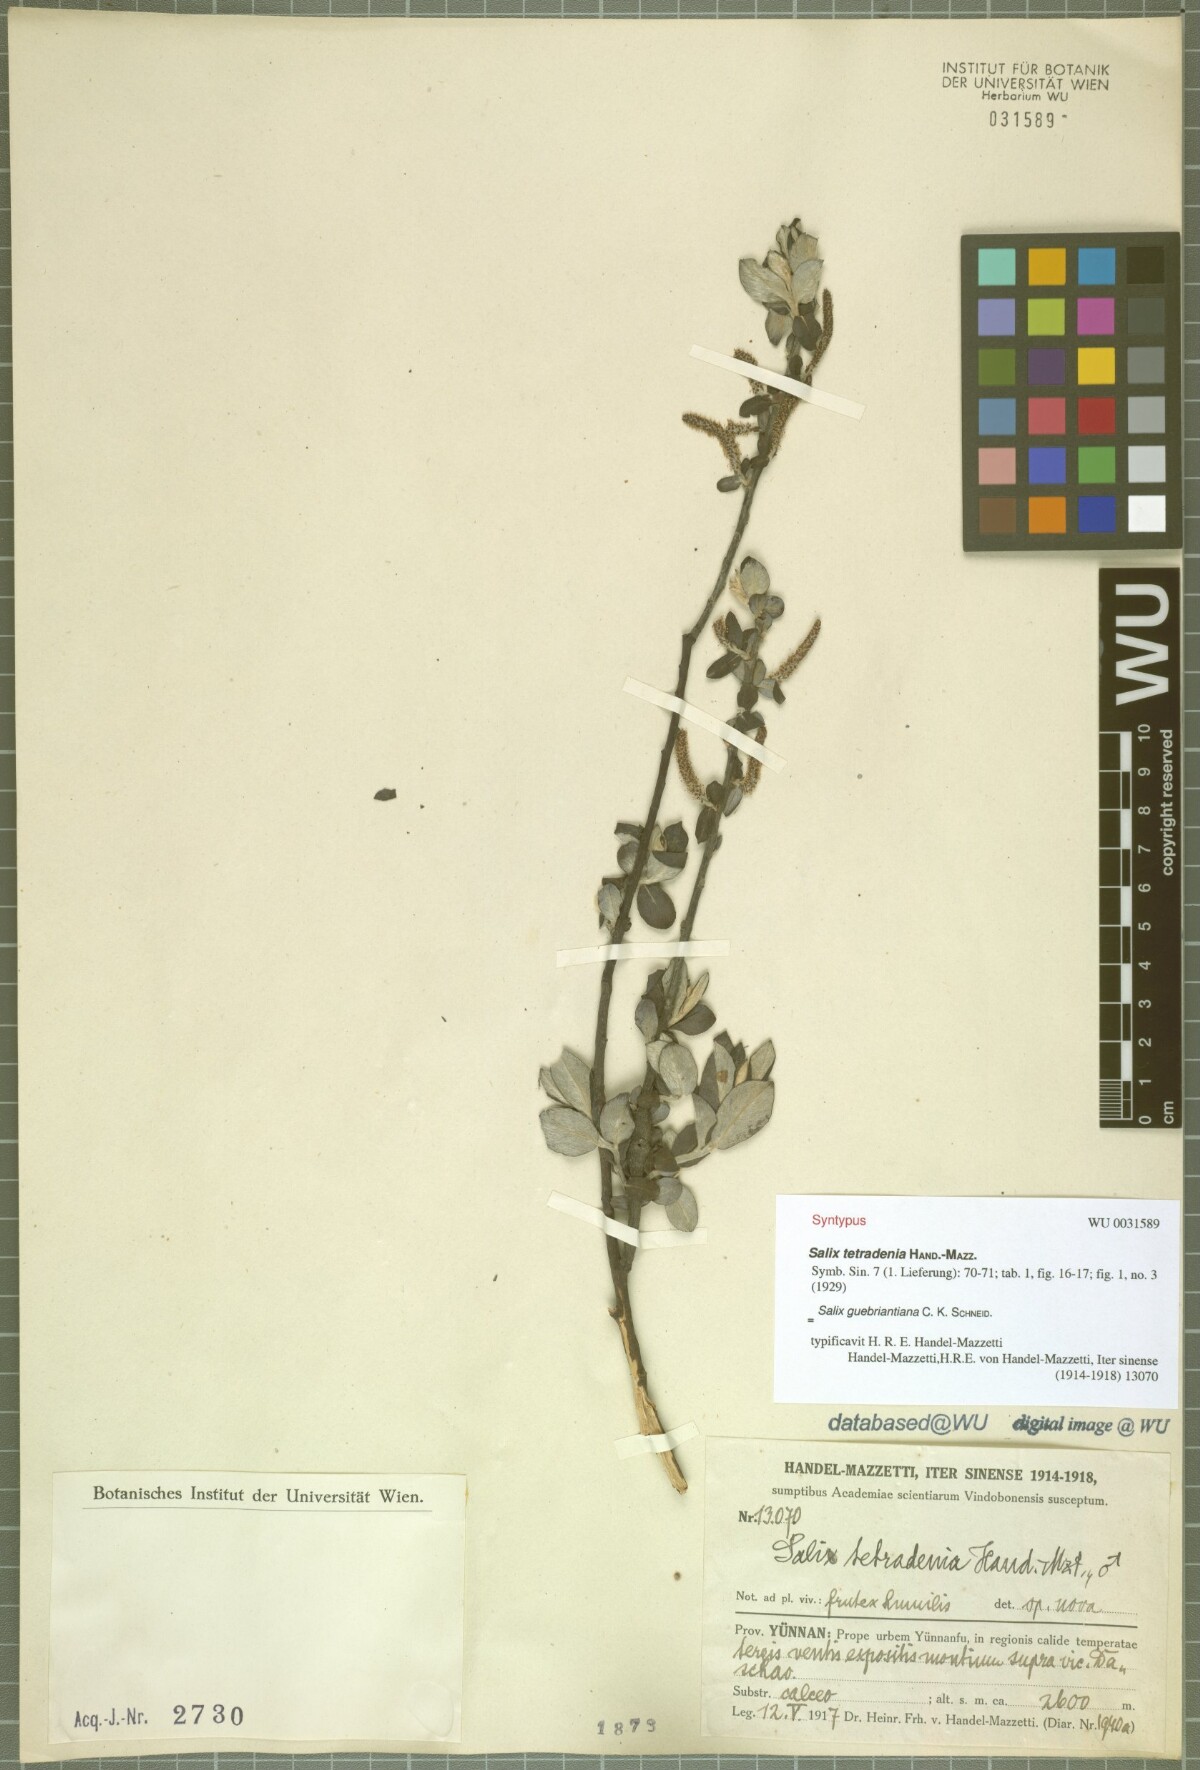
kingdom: Plantae
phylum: Tracheophyta
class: Magnoliopsida
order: Malpighiales
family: Salicaceae
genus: Salix
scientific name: Salix radinostachya
